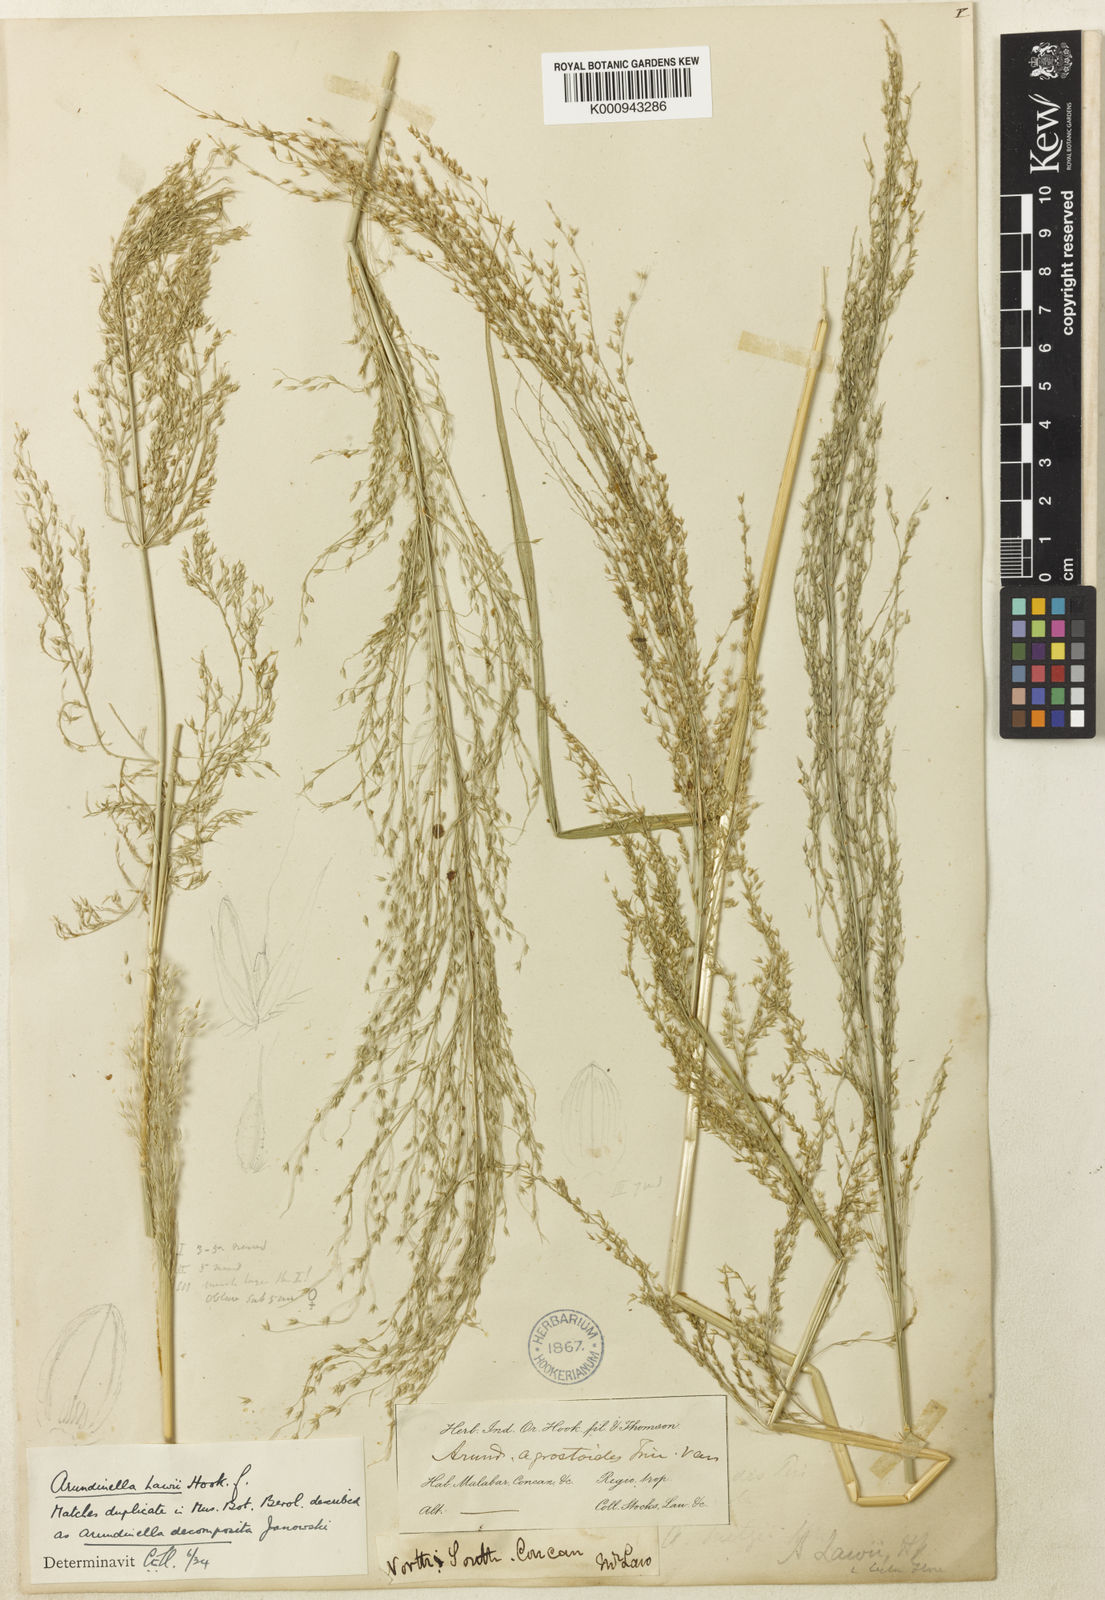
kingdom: Plantae
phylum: Tracheophyta
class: Liliopsida
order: Poales
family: Poaceae
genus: Arundinella
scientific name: Arundinella metzii
